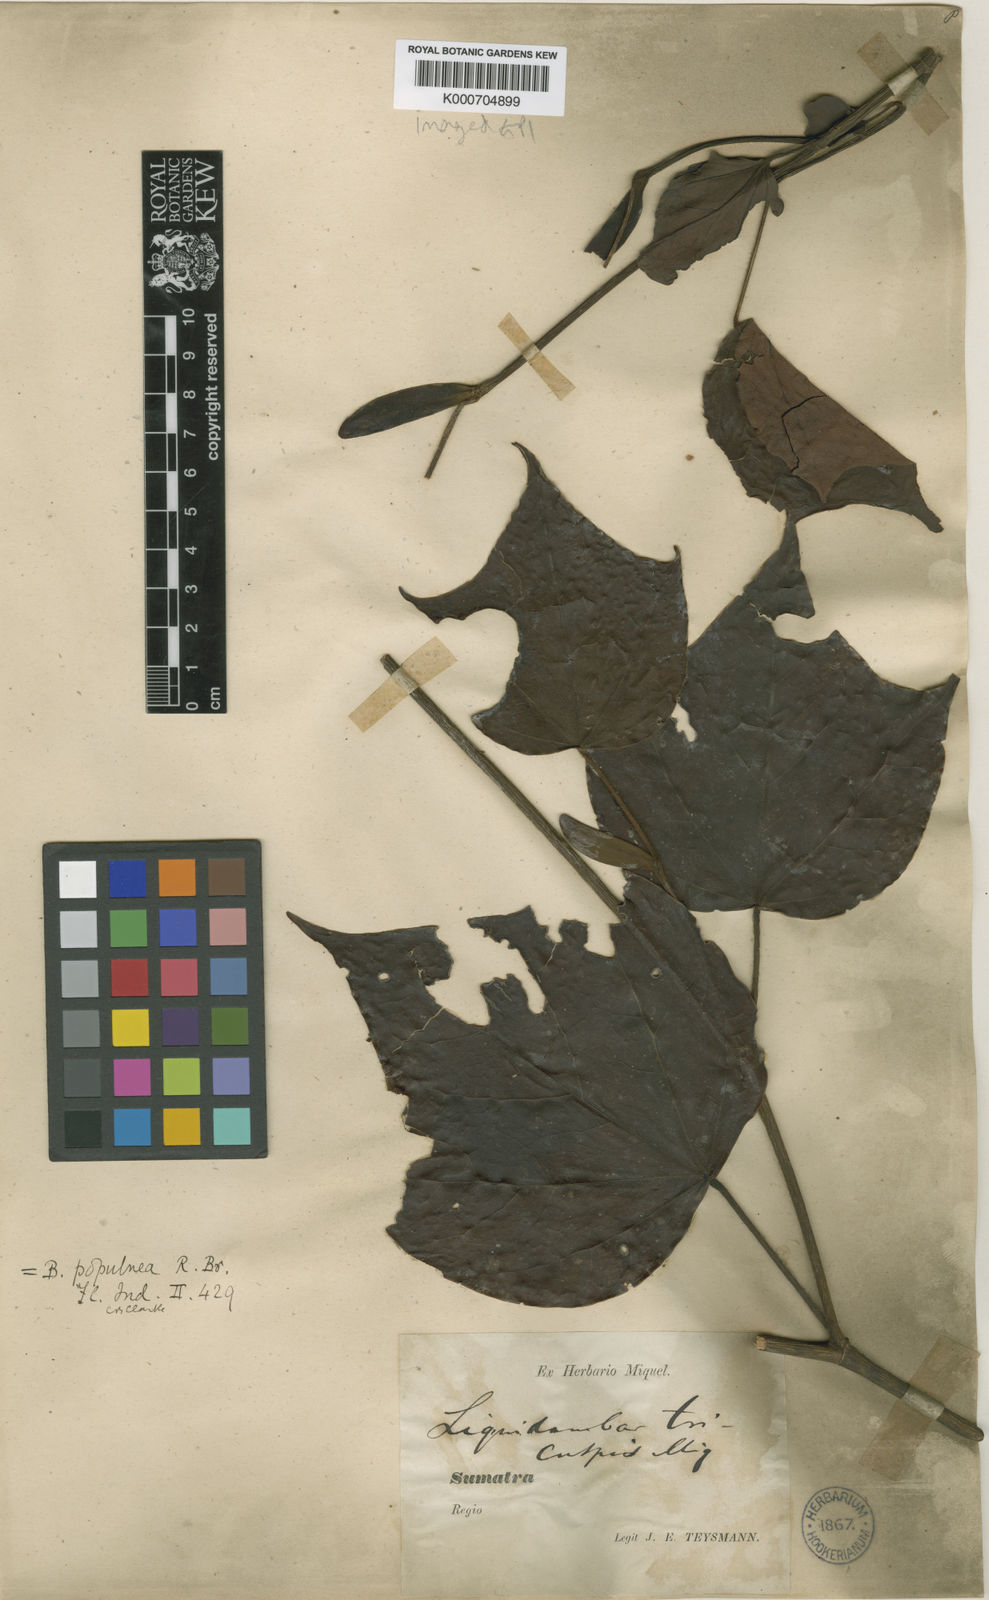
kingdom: Plantae
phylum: Tracheophyta
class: Magnoliopsida
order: Saxifragales
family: Hamamelidaceae
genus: Exbucklandia
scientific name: Exbucklandia populnea
